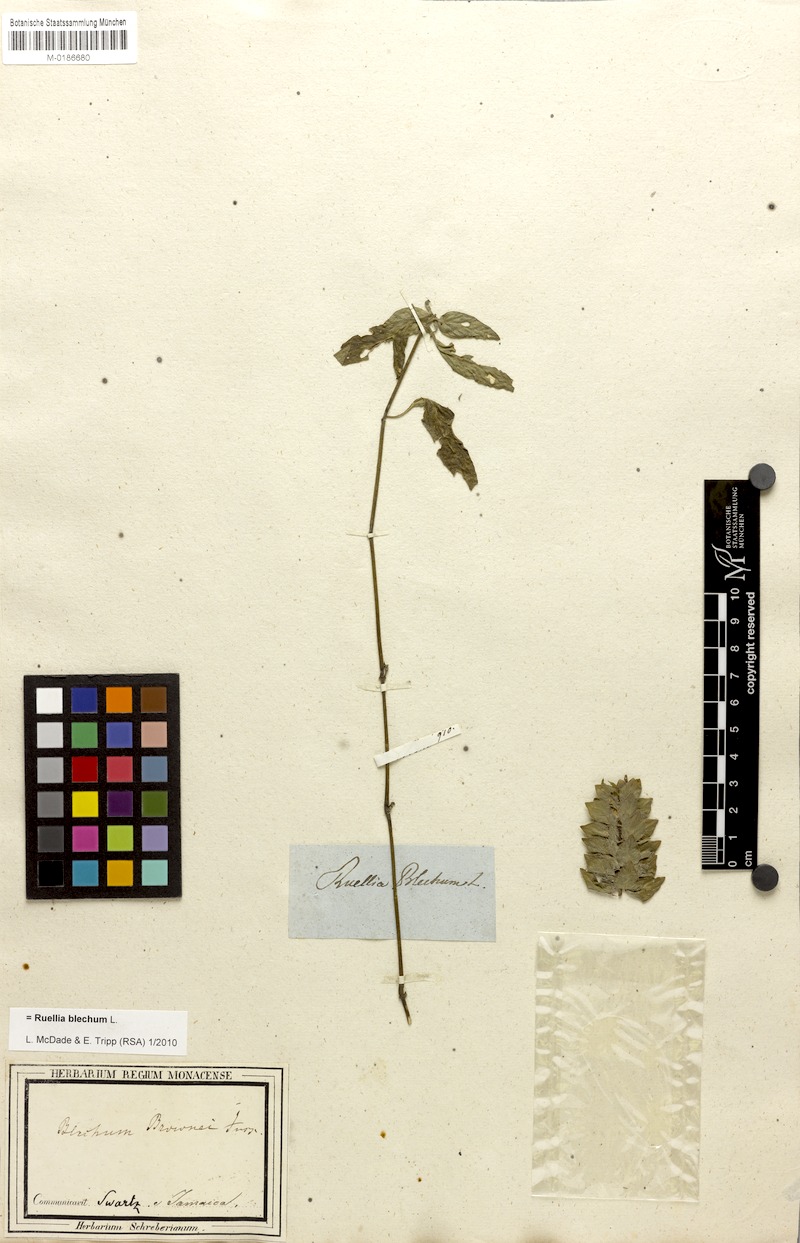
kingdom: Plantae
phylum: Tracheophyta
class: Magnoliopsida
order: Lamiales
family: Acanthaceae
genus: Ruellia
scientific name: Ruellia blechum
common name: Browne's blechum
